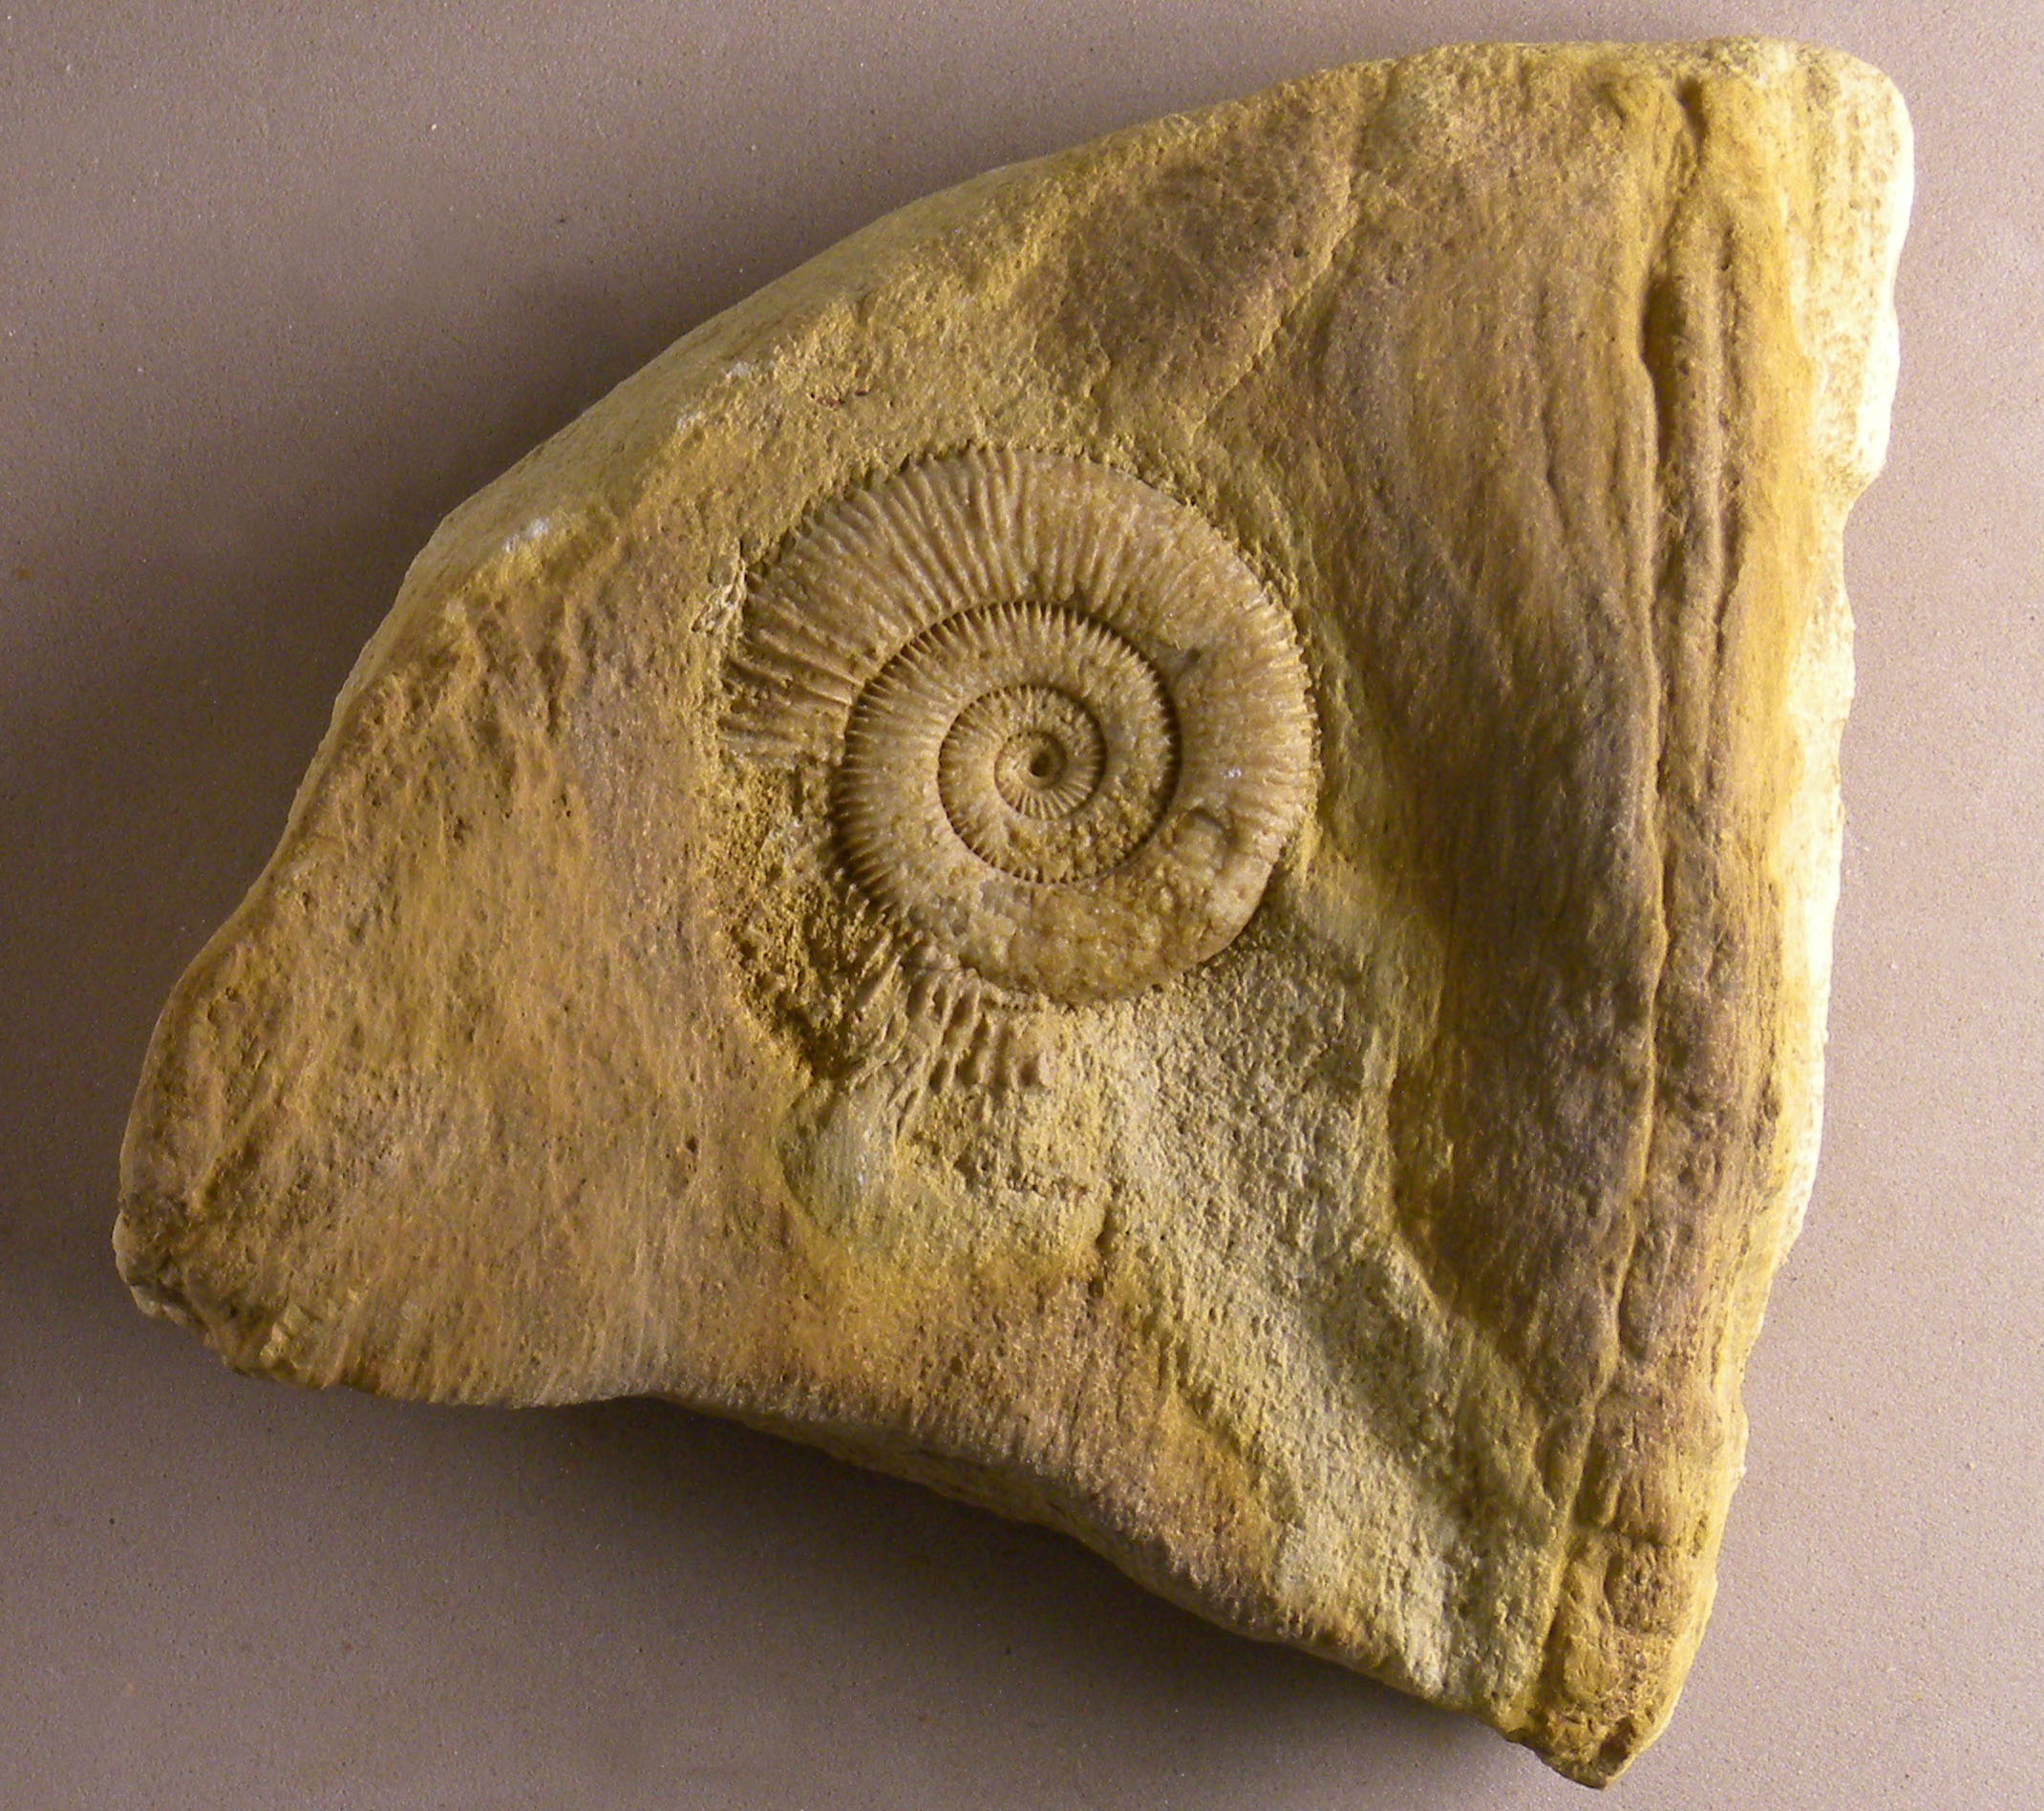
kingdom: Animalia
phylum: Mollusca
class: Cephalopoda
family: Dactylioceratidae
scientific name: Dactylioceratidae
